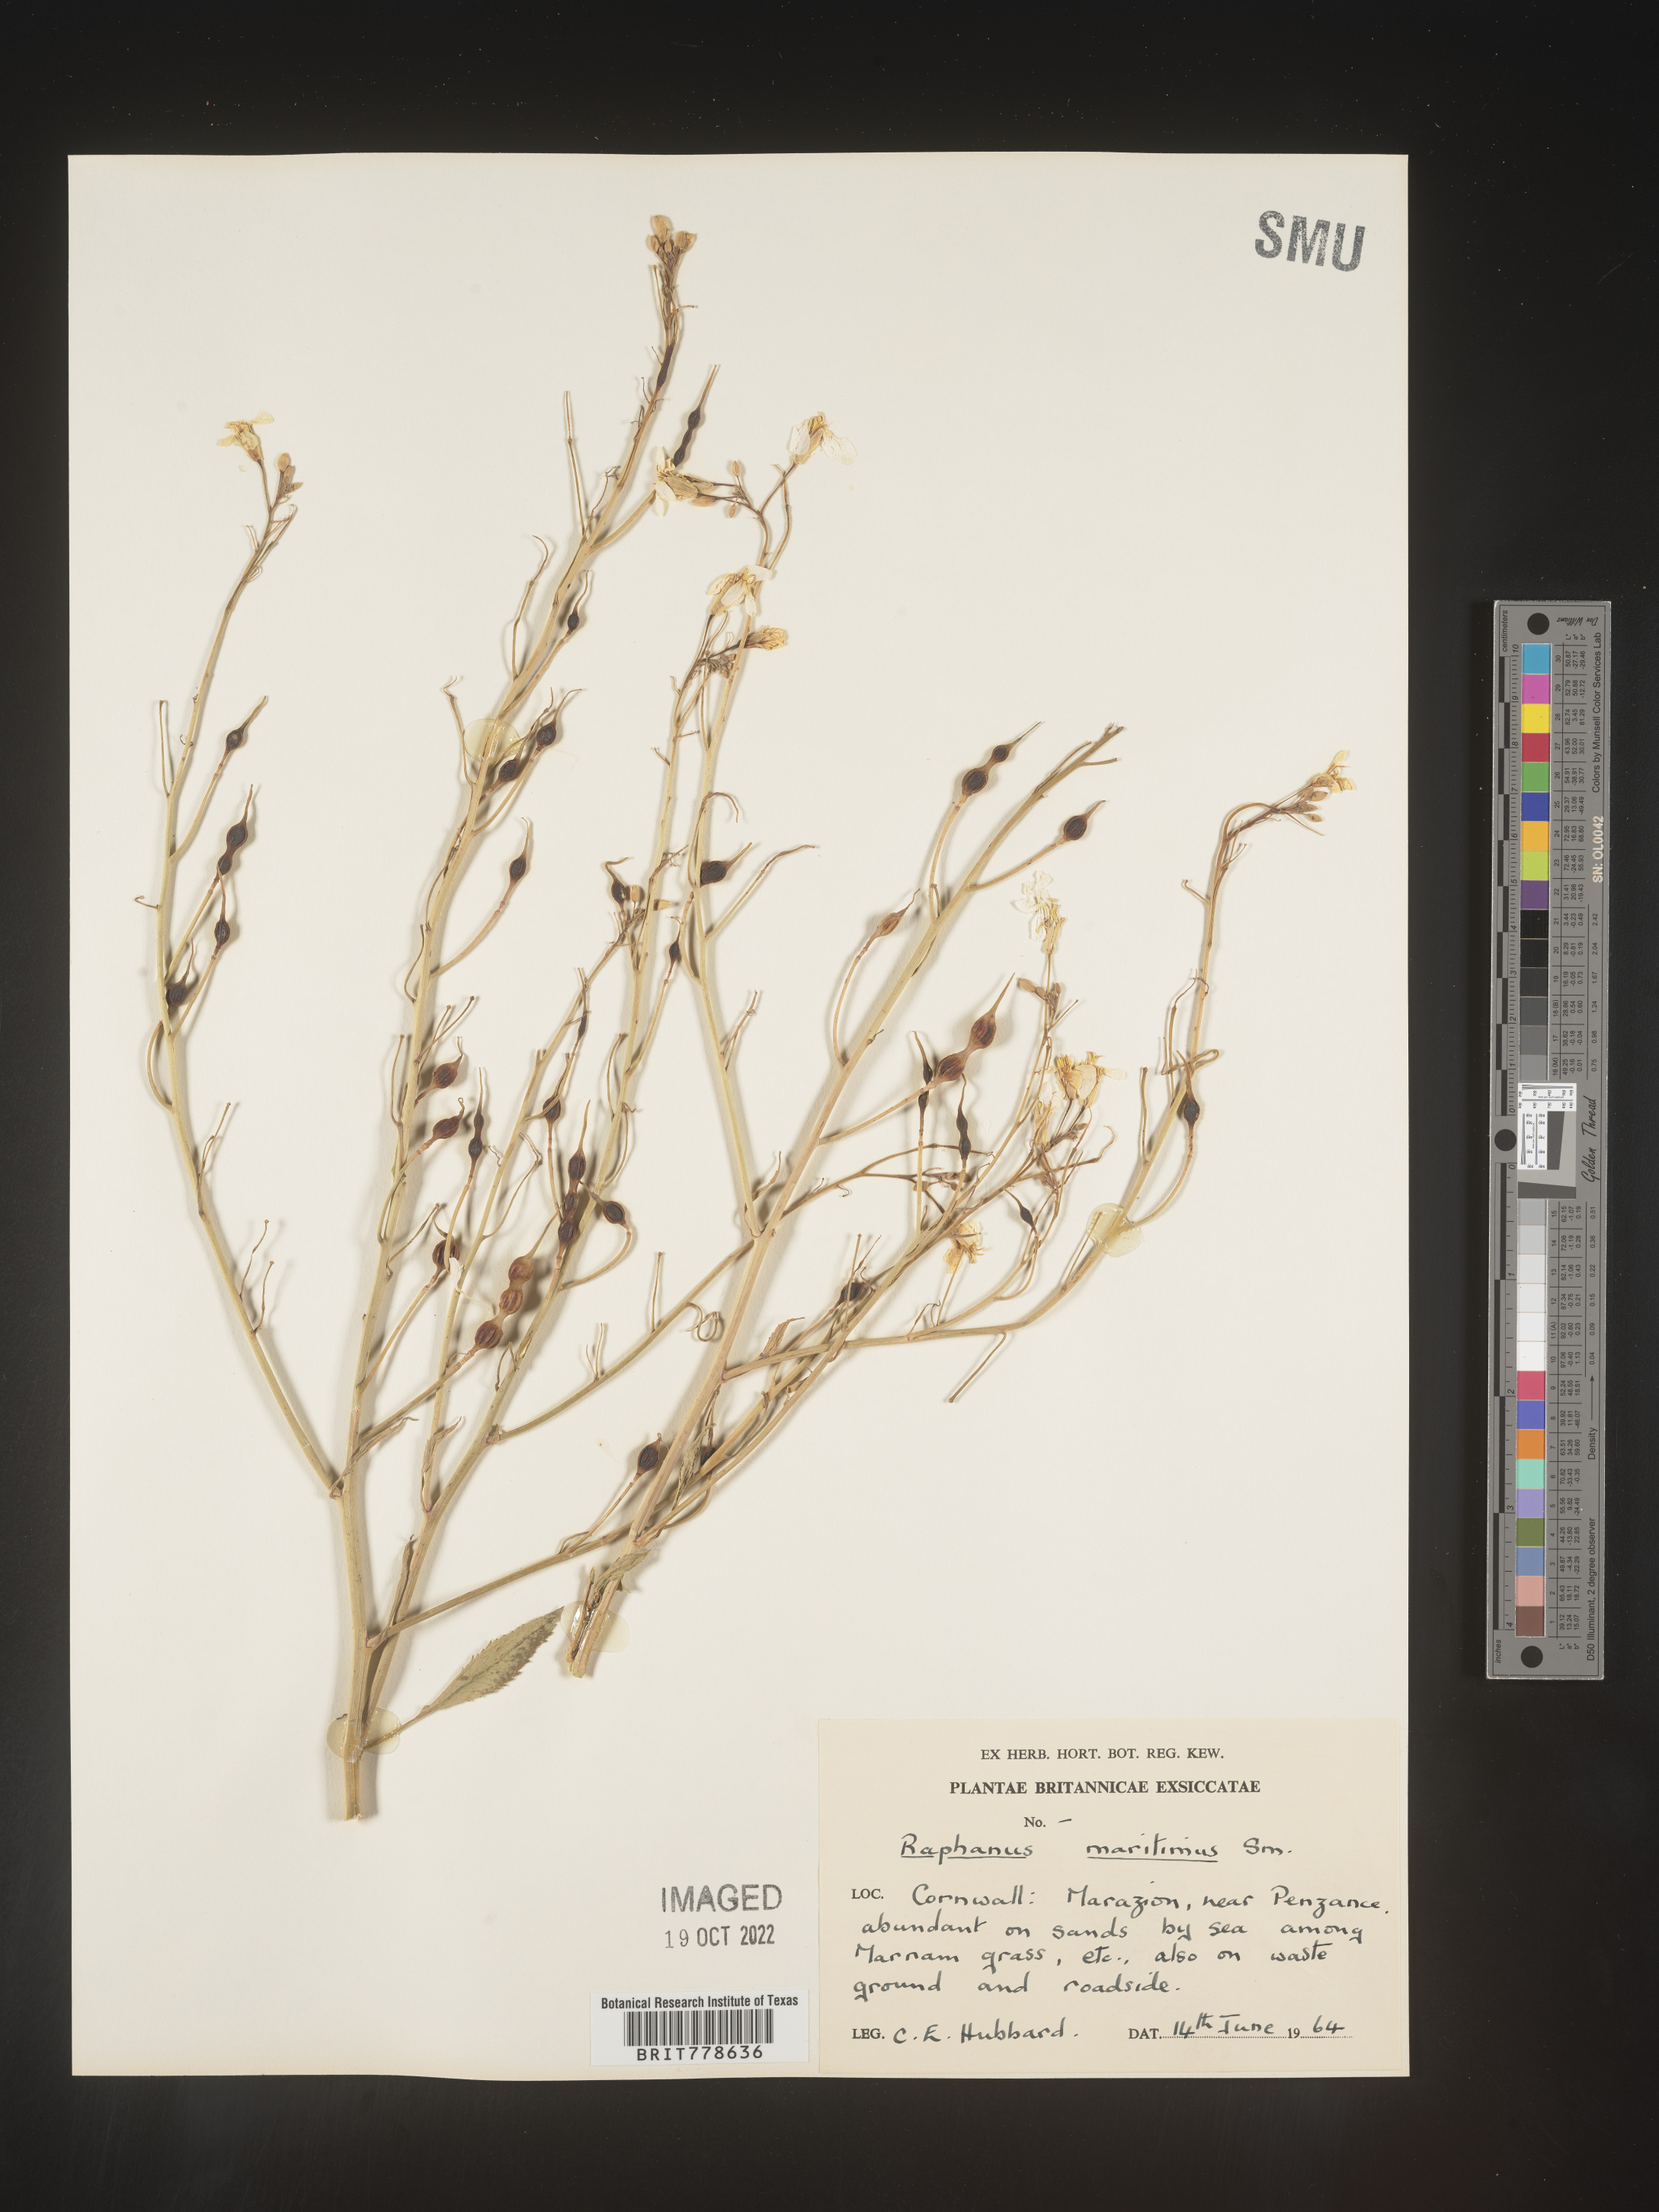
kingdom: Plantae
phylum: Tracheophyta
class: Magnoliopsida
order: Brassicales
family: Brassicaceae
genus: Raphanus
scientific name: Raphanus raphanistrum
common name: Wild radish
